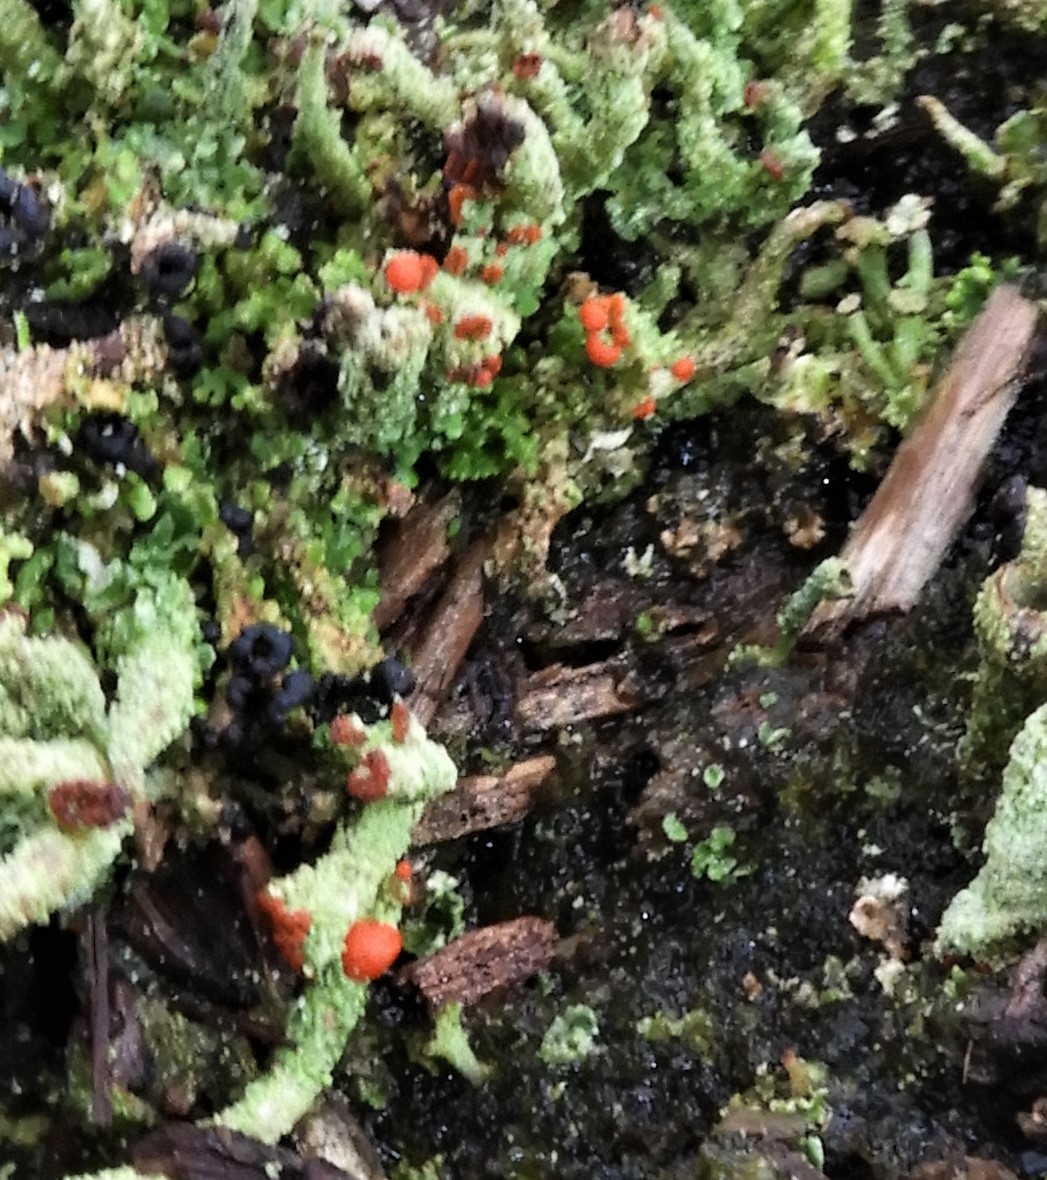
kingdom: Fungi
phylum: Ascomycota
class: Lecanoromycetes
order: Lecanorales
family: Cladoniaceae
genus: Cladonia
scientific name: Cladonia floerkeana
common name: lakrød bægerlav
